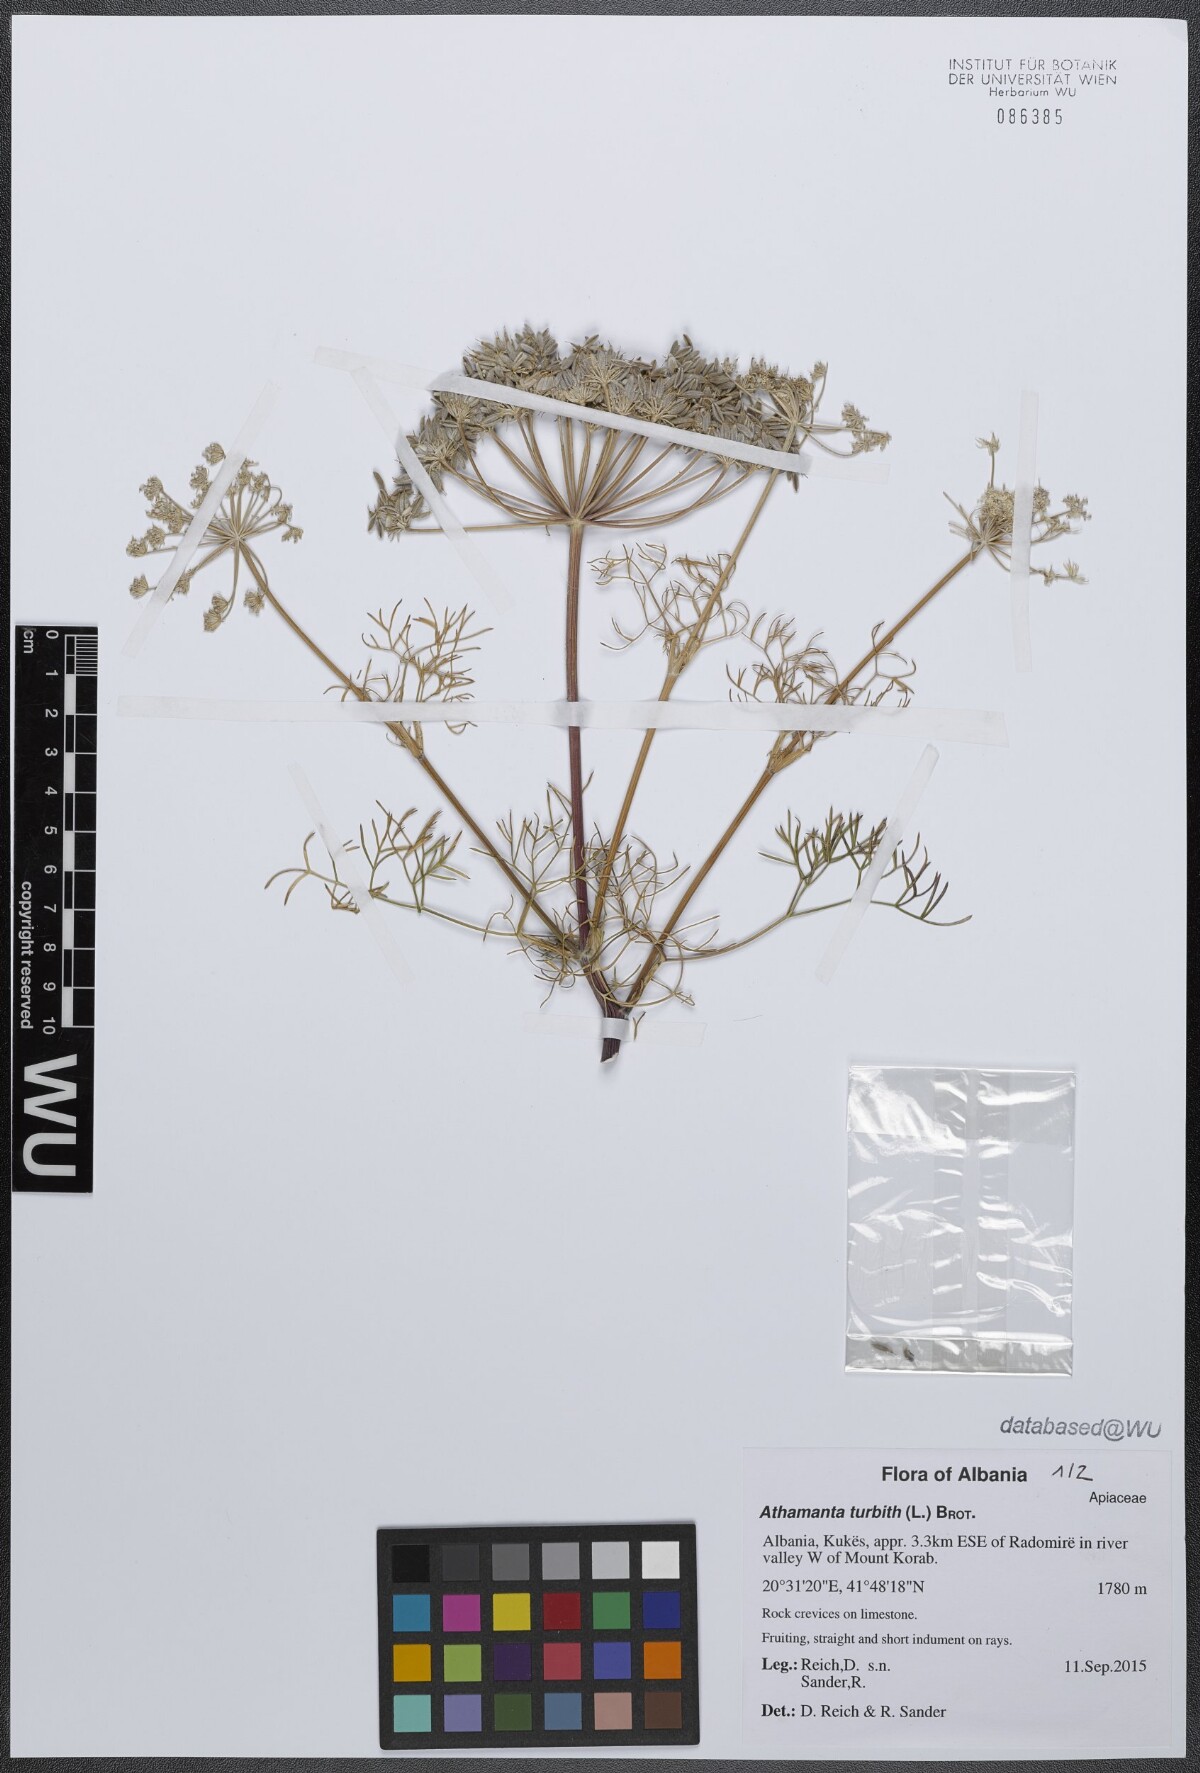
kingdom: Plantae
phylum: Tracheophyta
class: Magnoliopsida
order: Apiales
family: Apiaceae
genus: Athamanta
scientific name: Athamanta turbith
